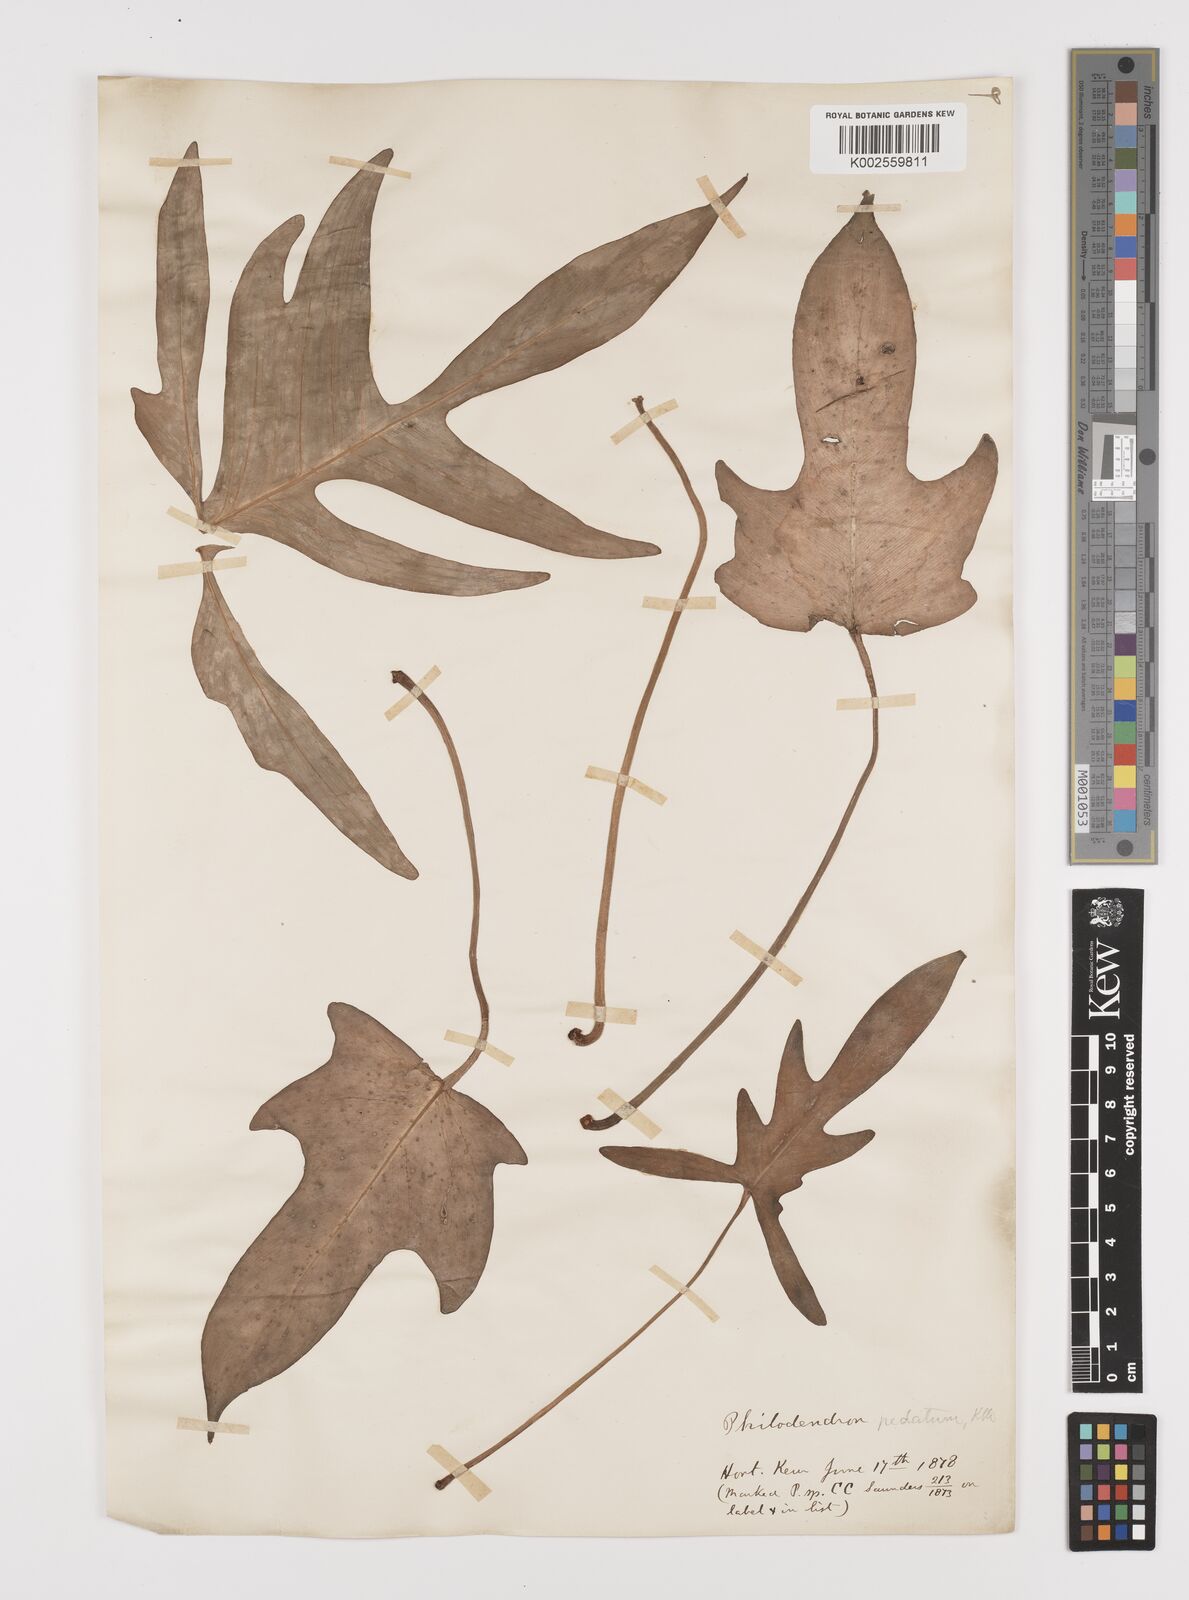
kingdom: Plantae
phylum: Tracheophyta
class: Liliopsida
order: Alismatales
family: Araceae
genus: Philodendron
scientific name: Philodendron pedatum
